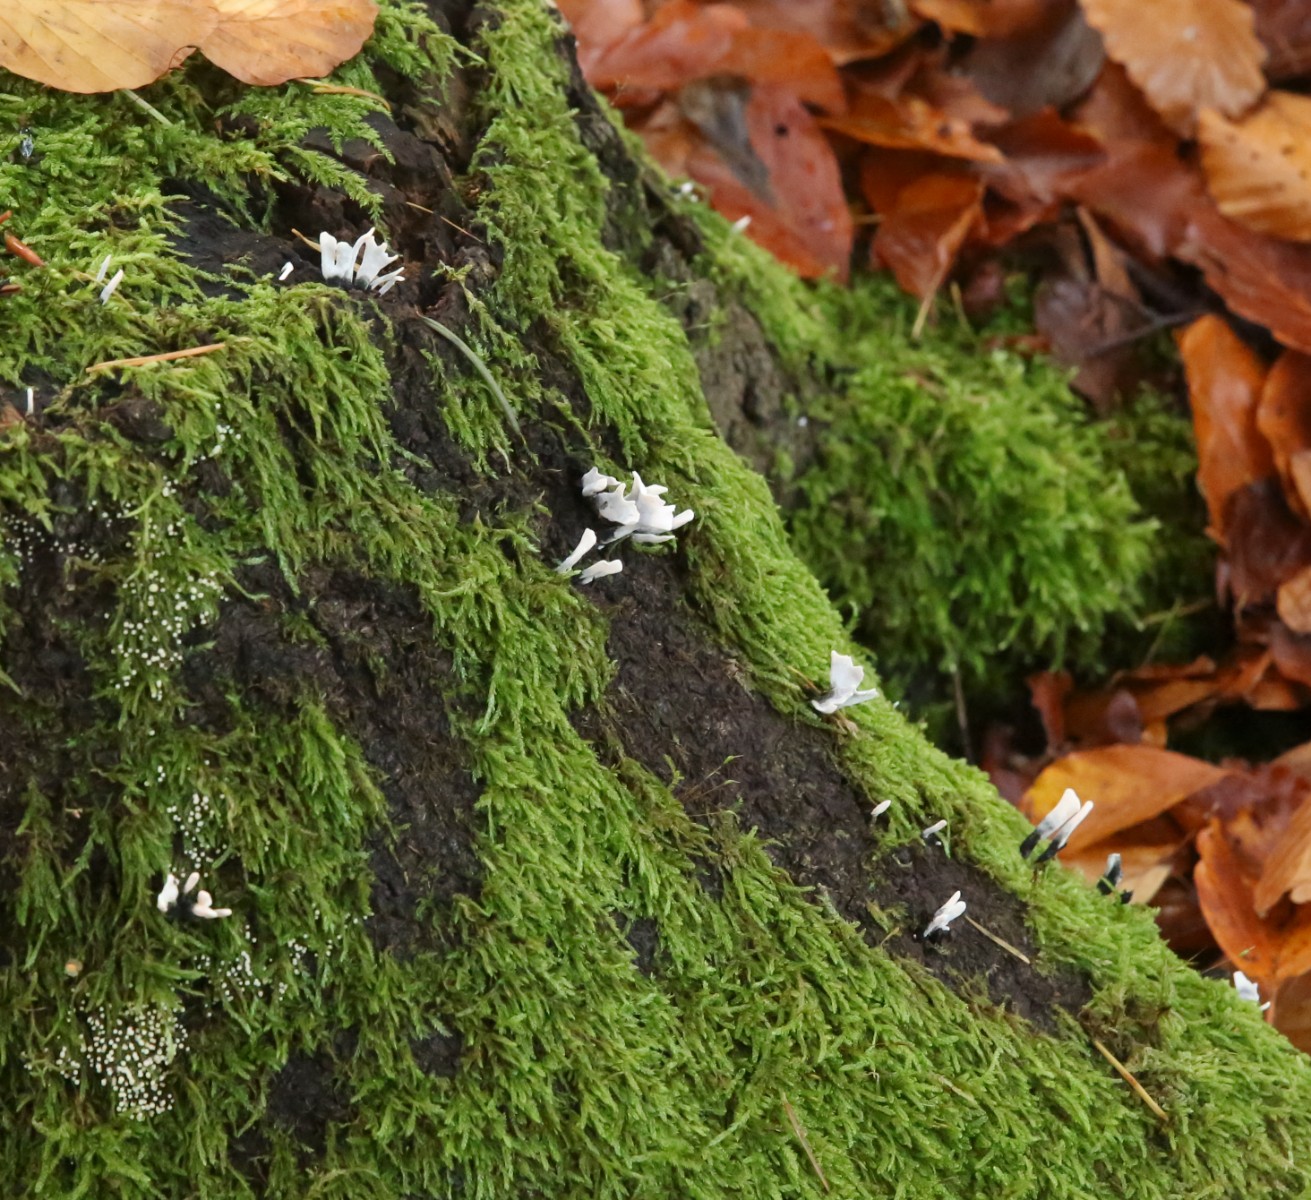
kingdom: Fungi
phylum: Ascomycota
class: Sordariomycetes
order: Xylariales
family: Xylariaceae
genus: Xylaria
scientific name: Xylaria hypoxylon
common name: grenet stødsvamp
